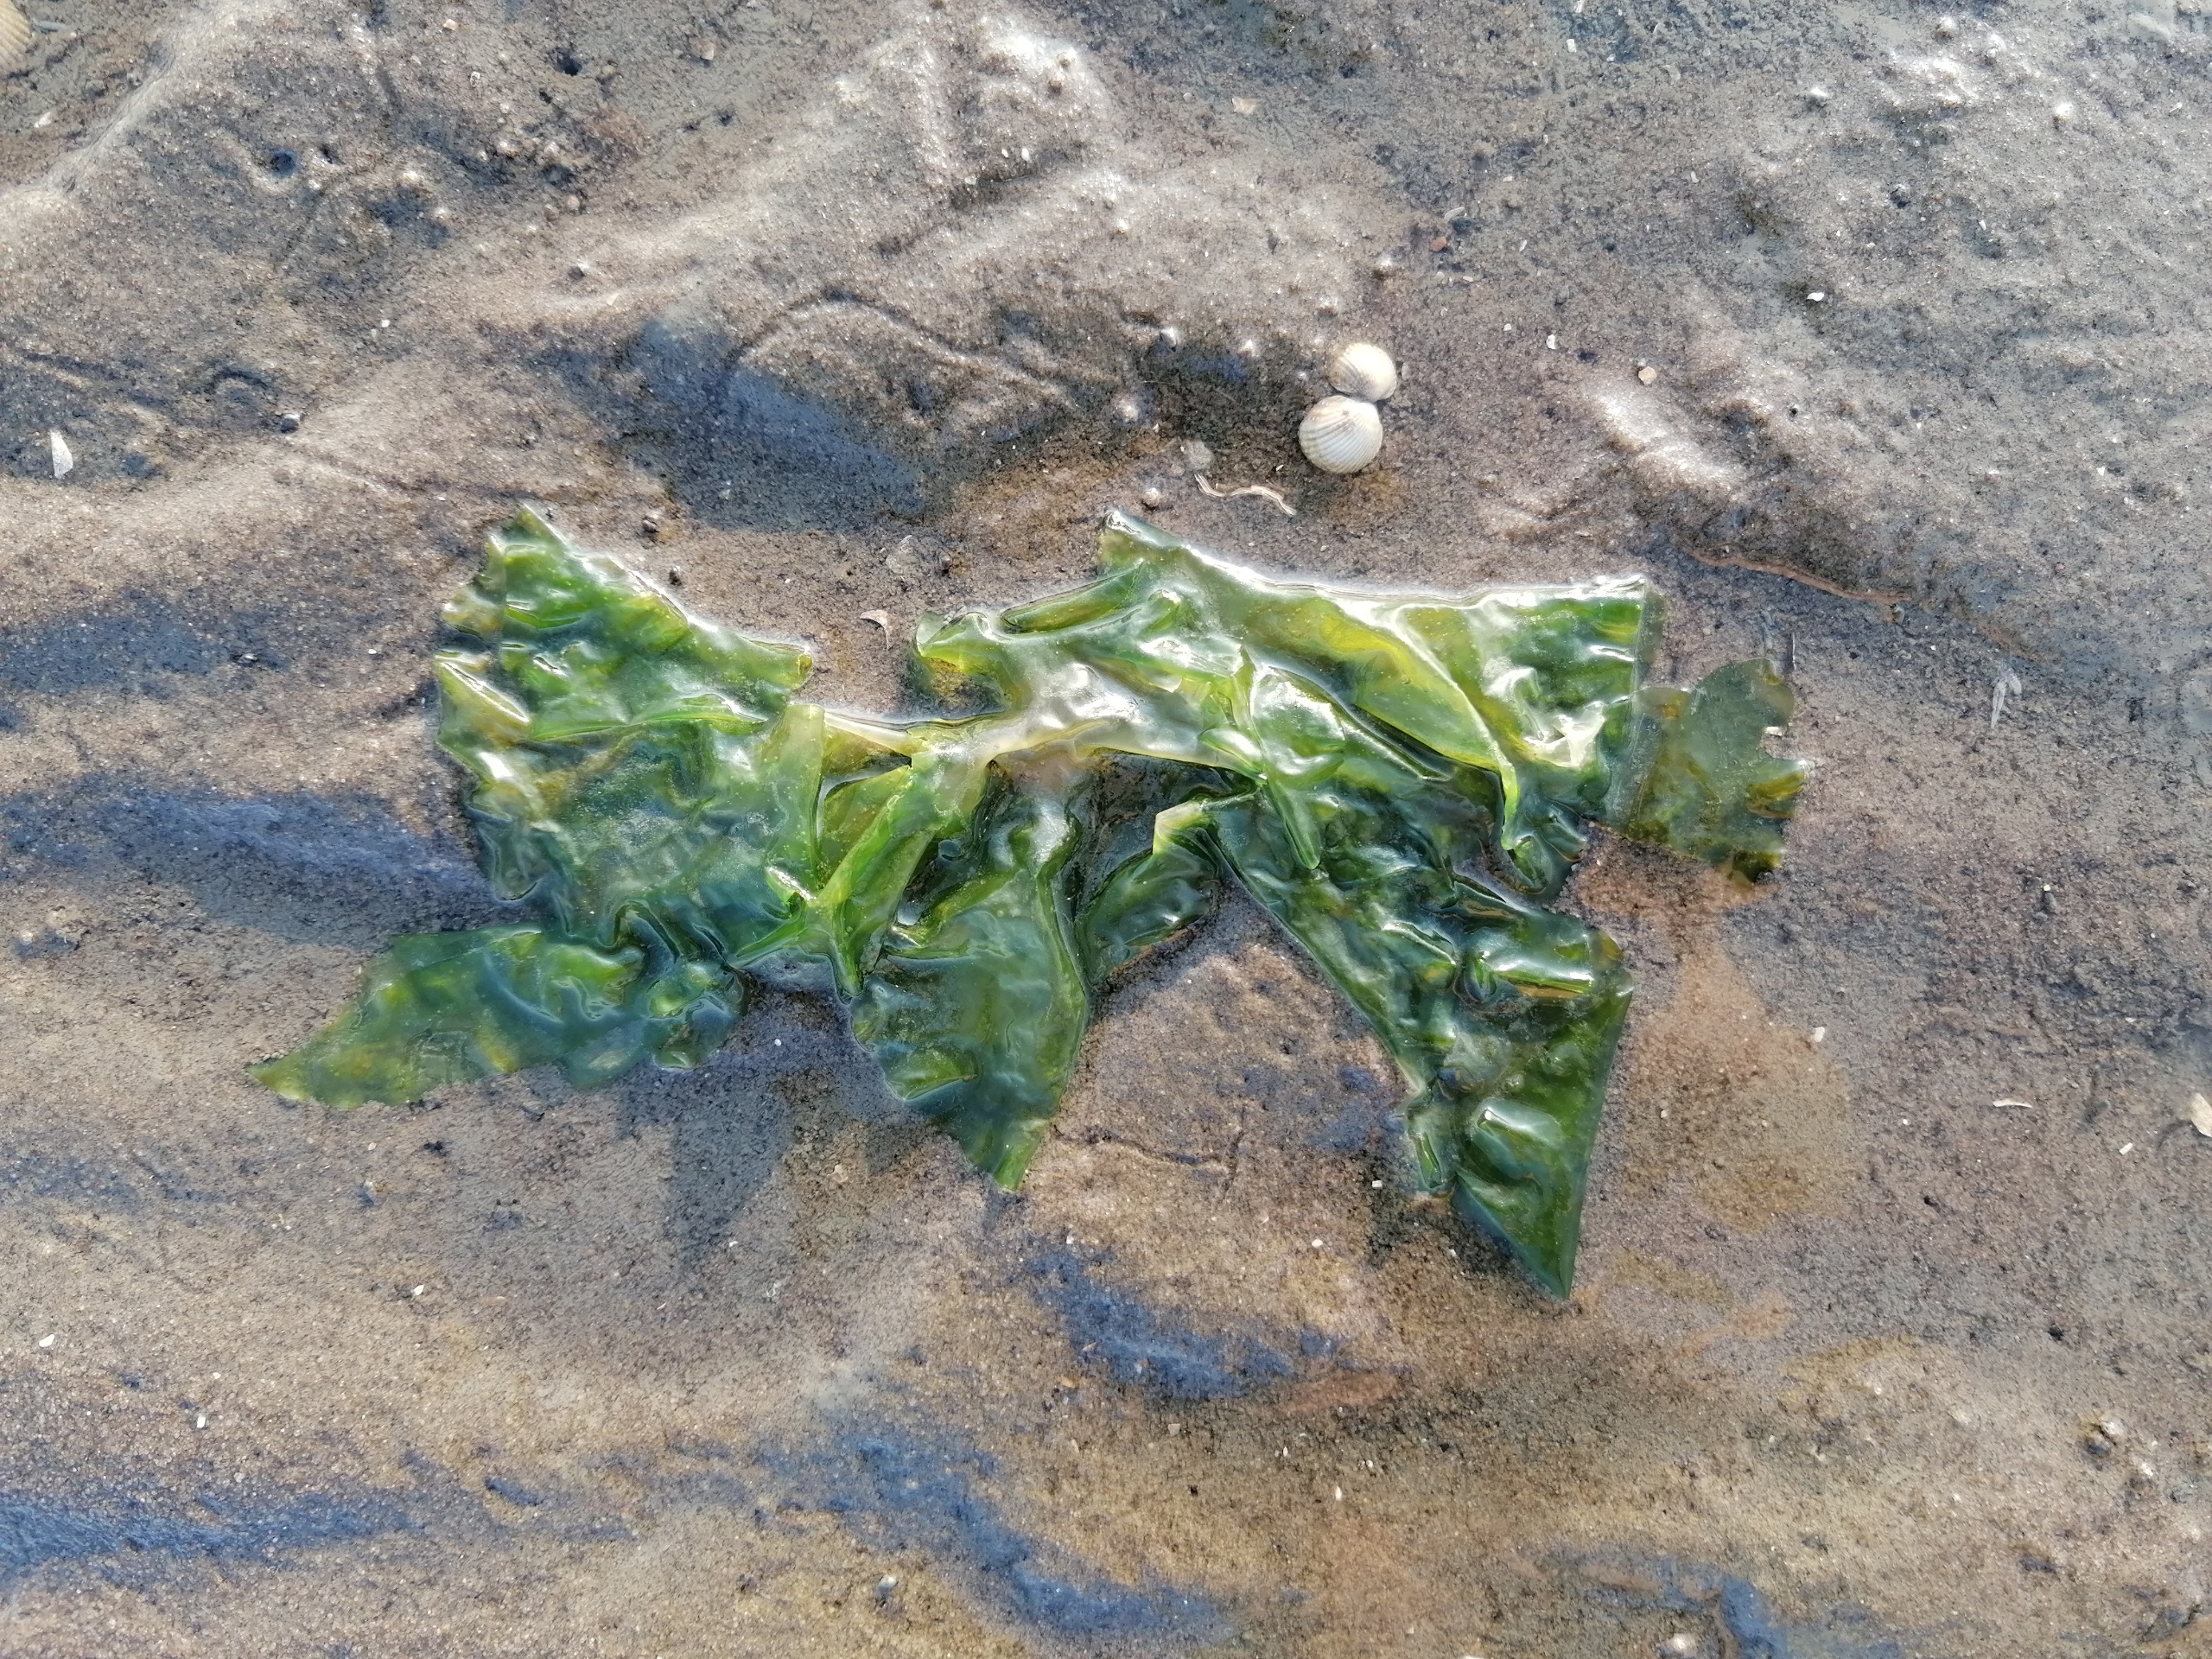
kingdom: Plantae
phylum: Chlorophyta
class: Ulvophyceae
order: Ulvales
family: Ulvaceae
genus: Ulva
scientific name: Ulva
